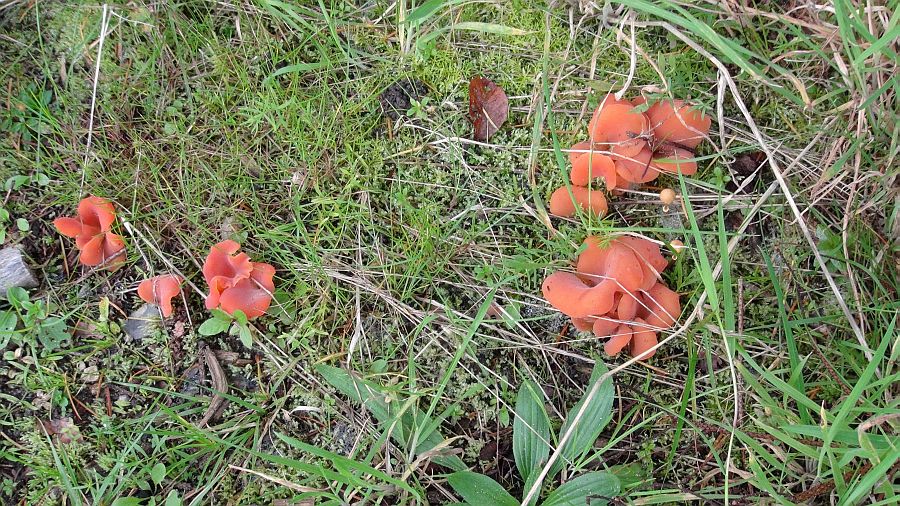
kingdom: Fungi
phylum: Basidiomycota
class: Agaricomycetes
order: Auriculariales
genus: Guepinia
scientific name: Guepinia helvelloides
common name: bævretunge
